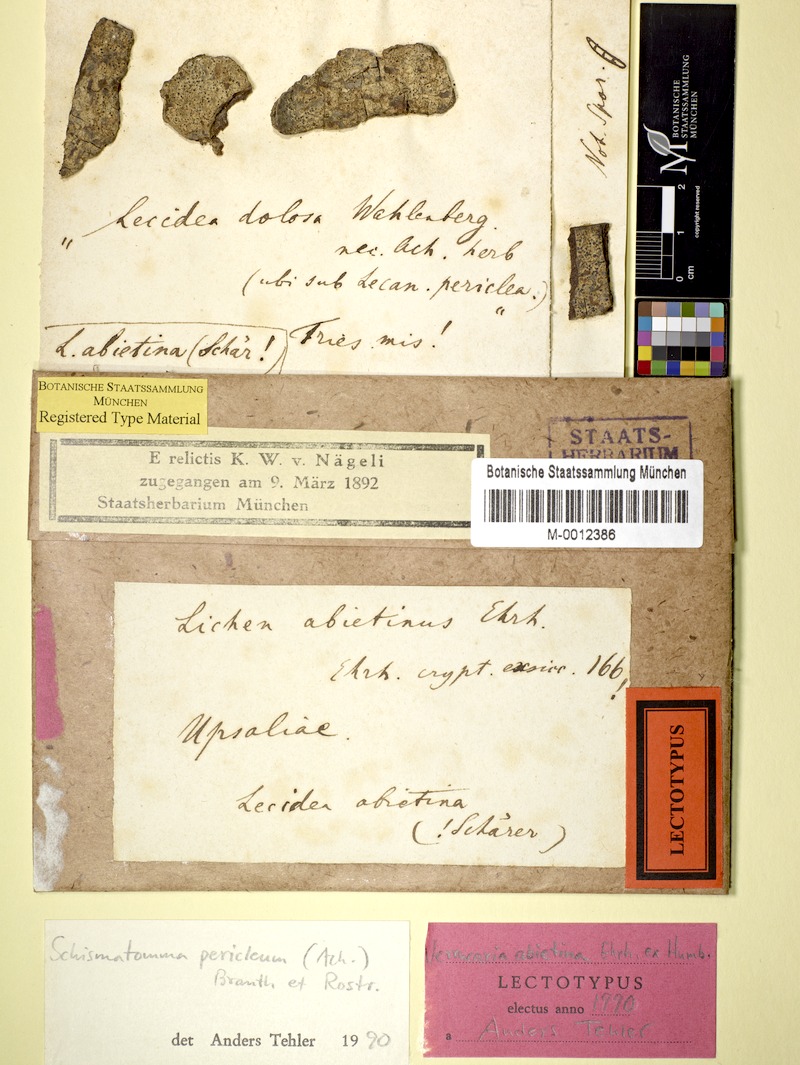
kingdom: Fungi
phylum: Ascomycota
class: Arthoniomycetes
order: Arthoniales
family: Roccellaceae
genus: Lecanactis
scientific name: Lecanactis abietina
